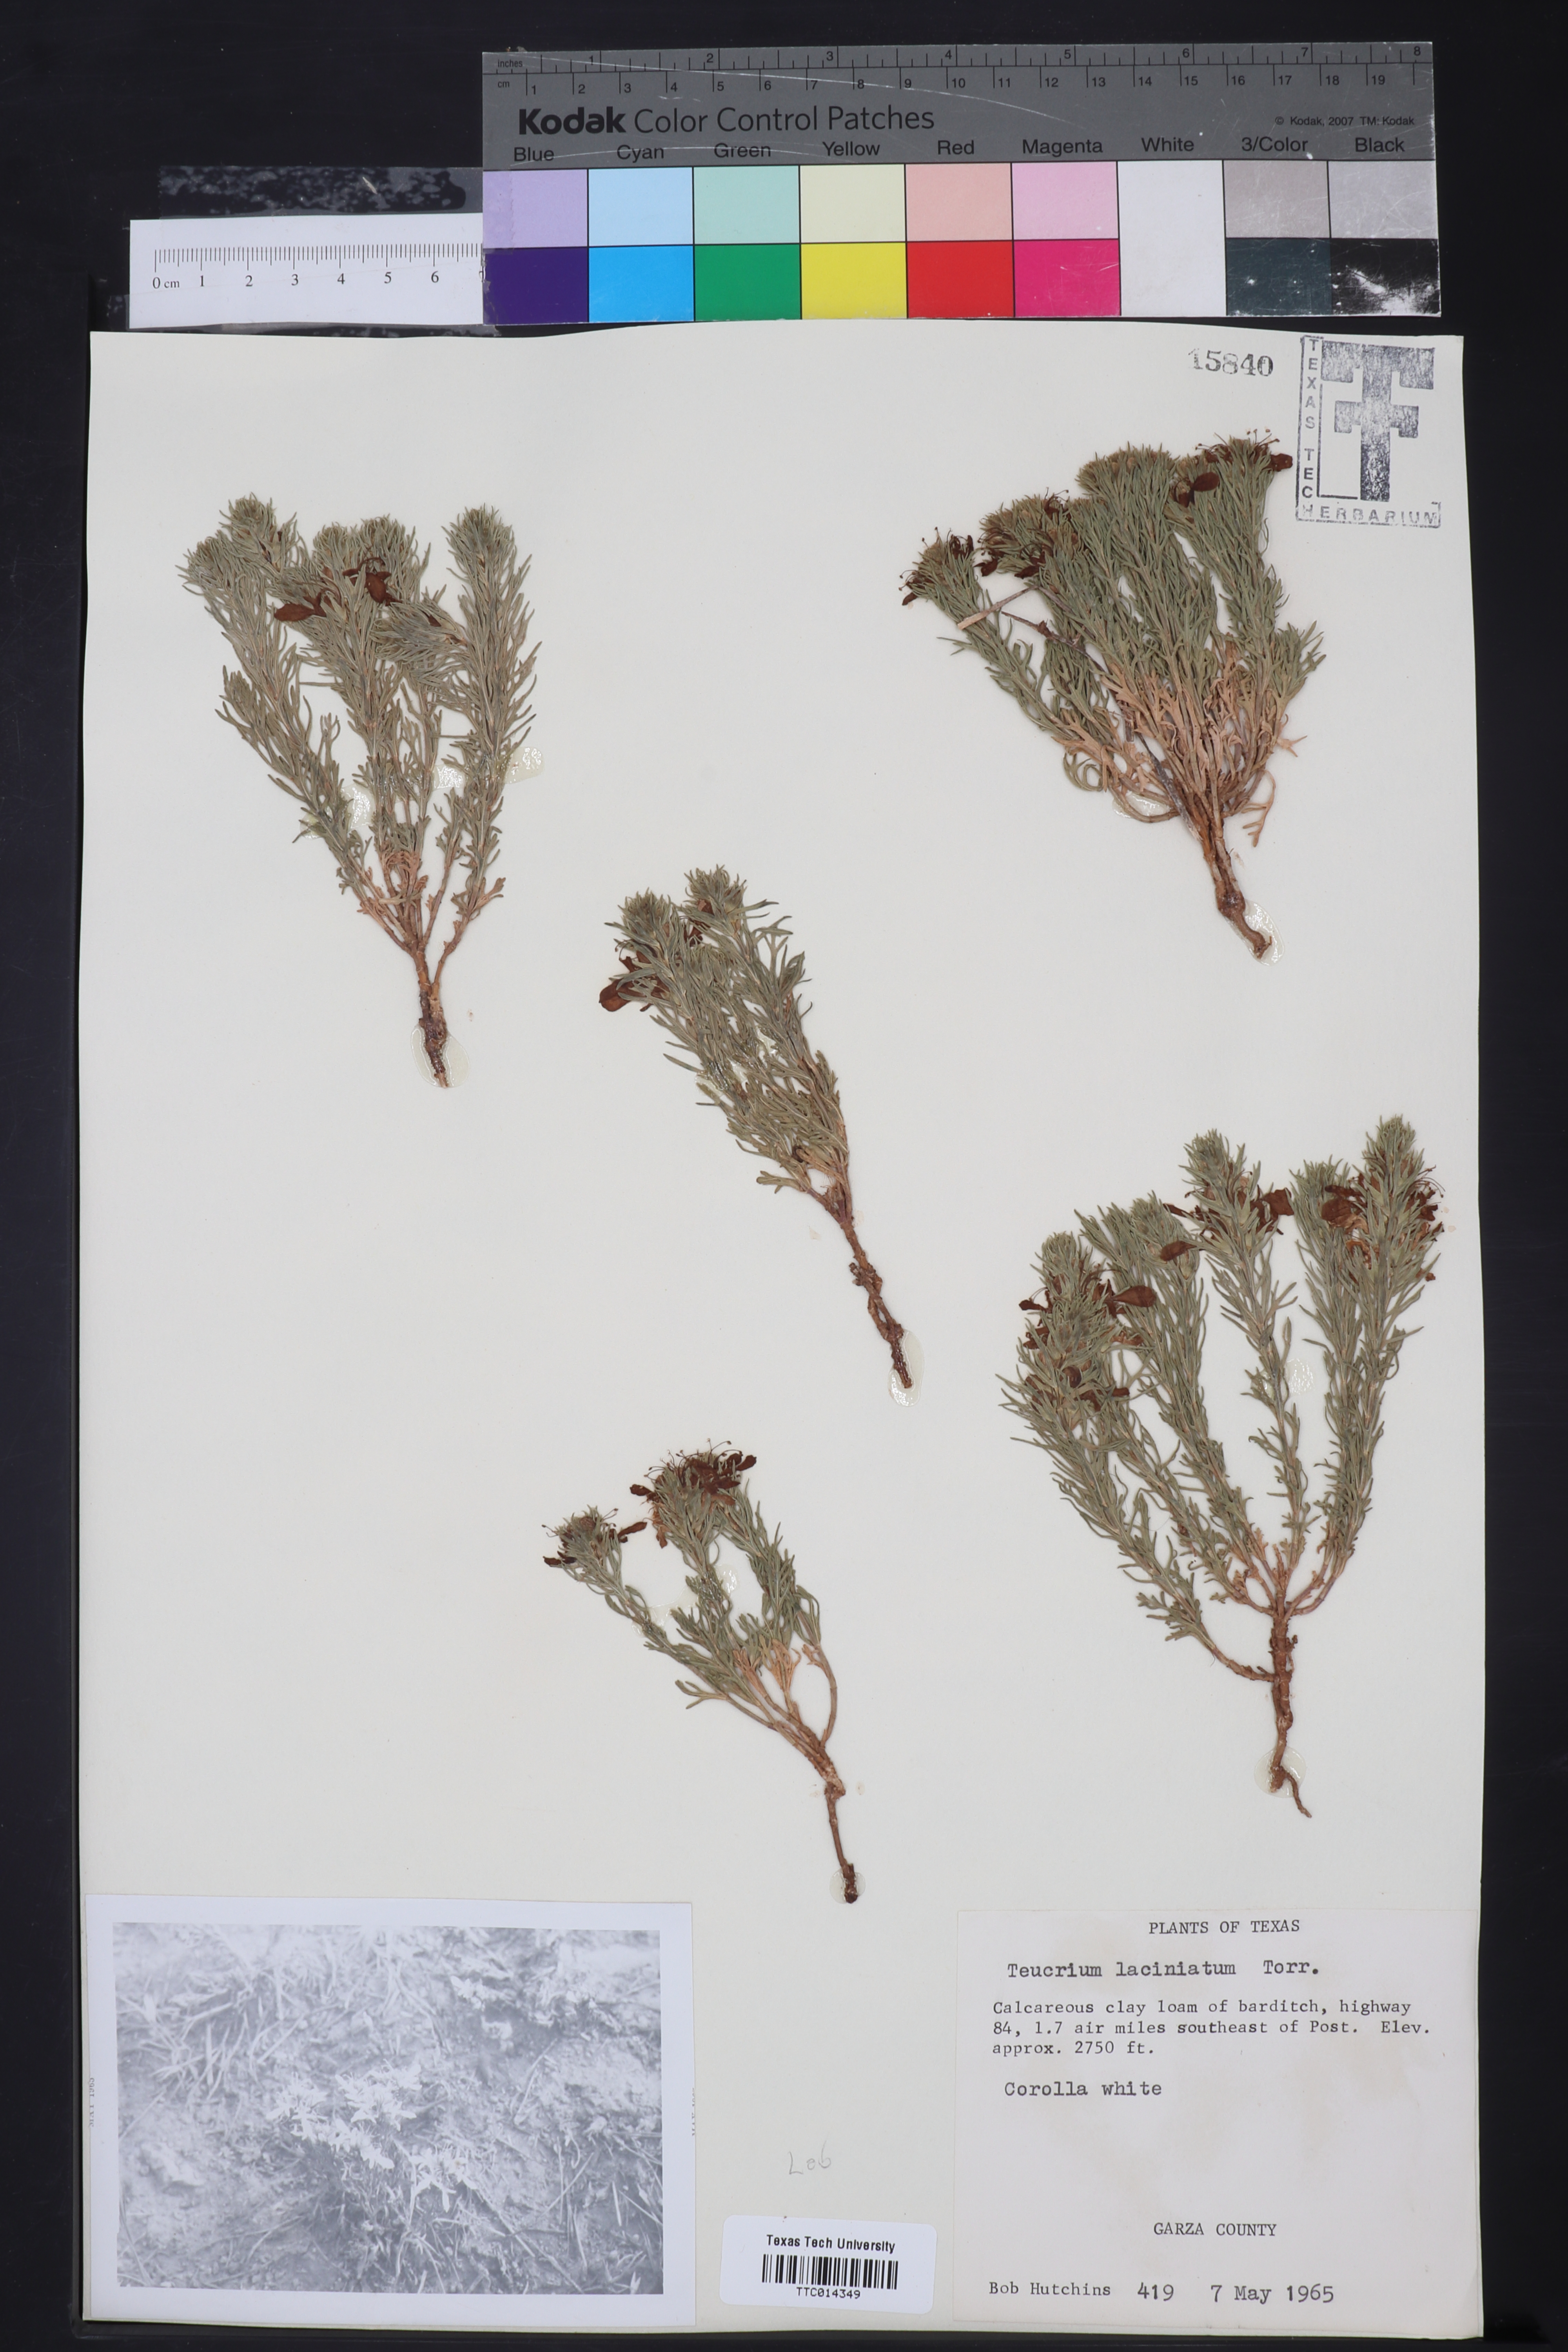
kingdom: Plantae
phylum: Tracheophyta
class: Magnoliopsida
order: Lamiales
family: Lamiaceae
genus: Teucrium
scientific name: Teucrium laciniatum
